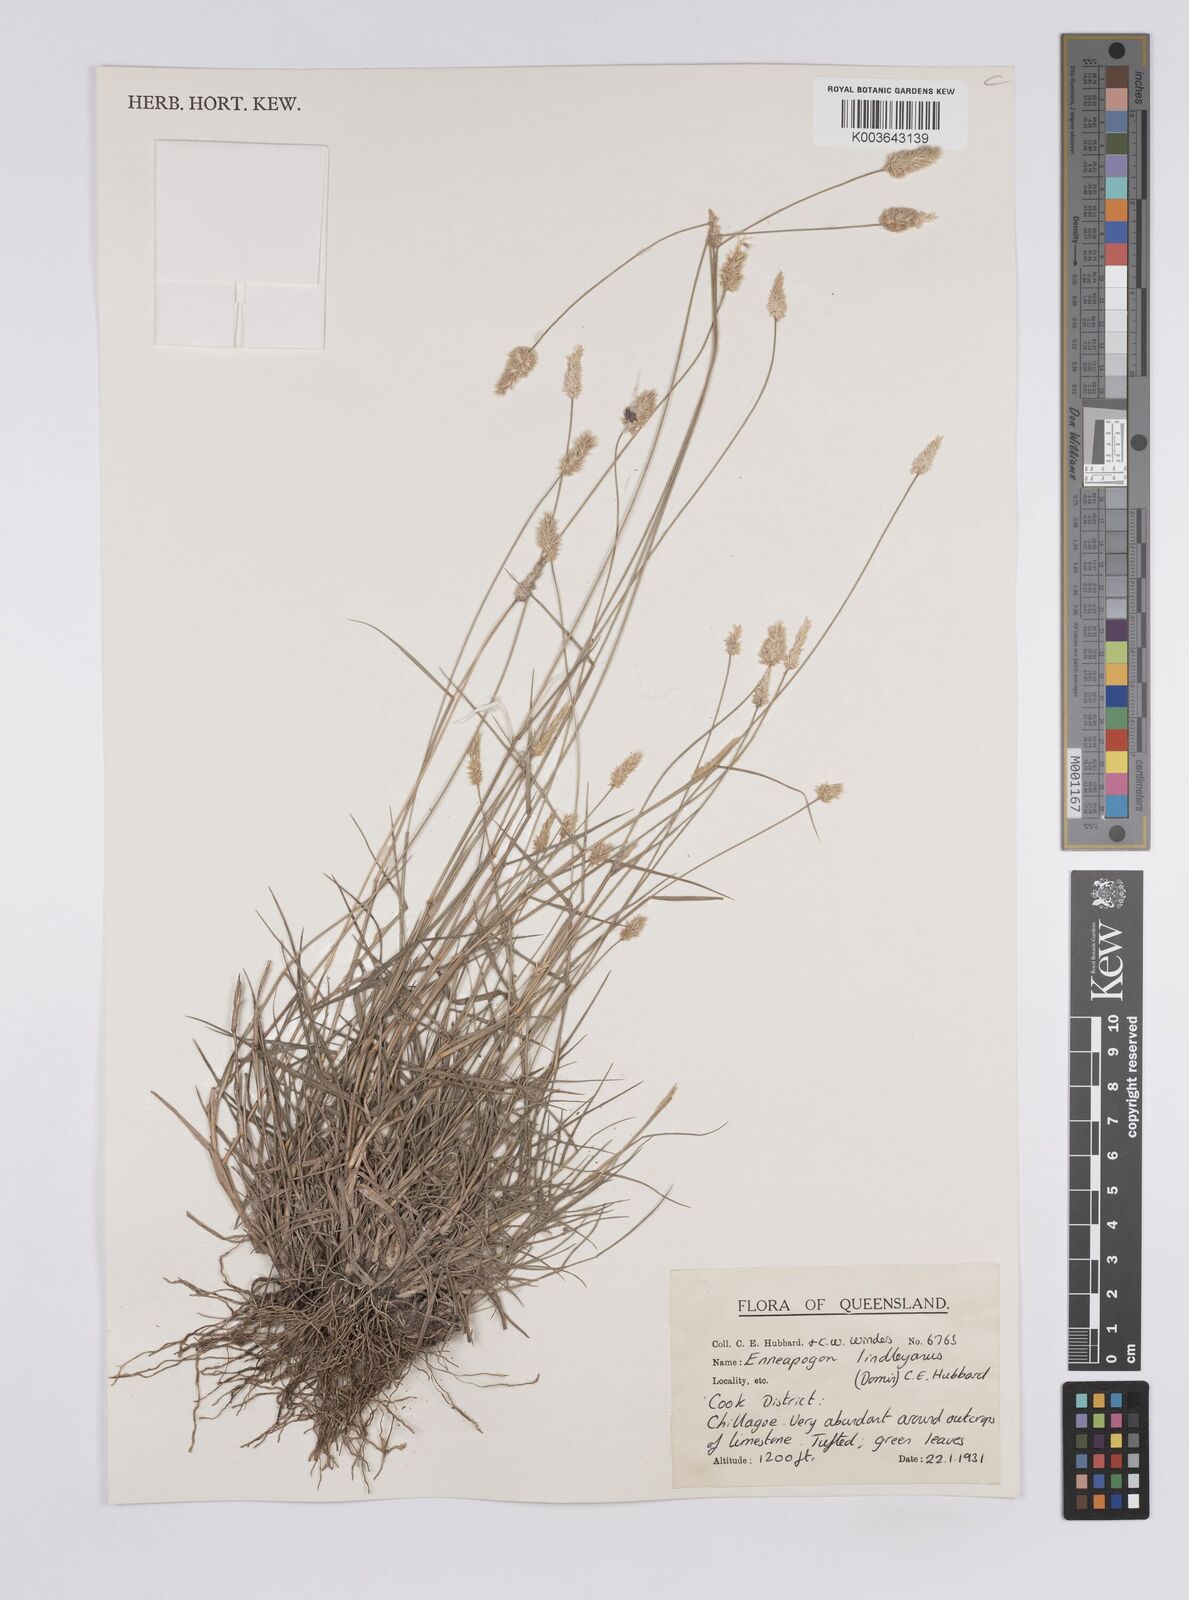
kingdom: Plantae
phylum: Tracheophyta
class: Liliopsida
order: Poales
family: Poaceae
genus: Enneapogon
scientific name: Enneapogon lindleyanus
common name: Conetop nineawn
